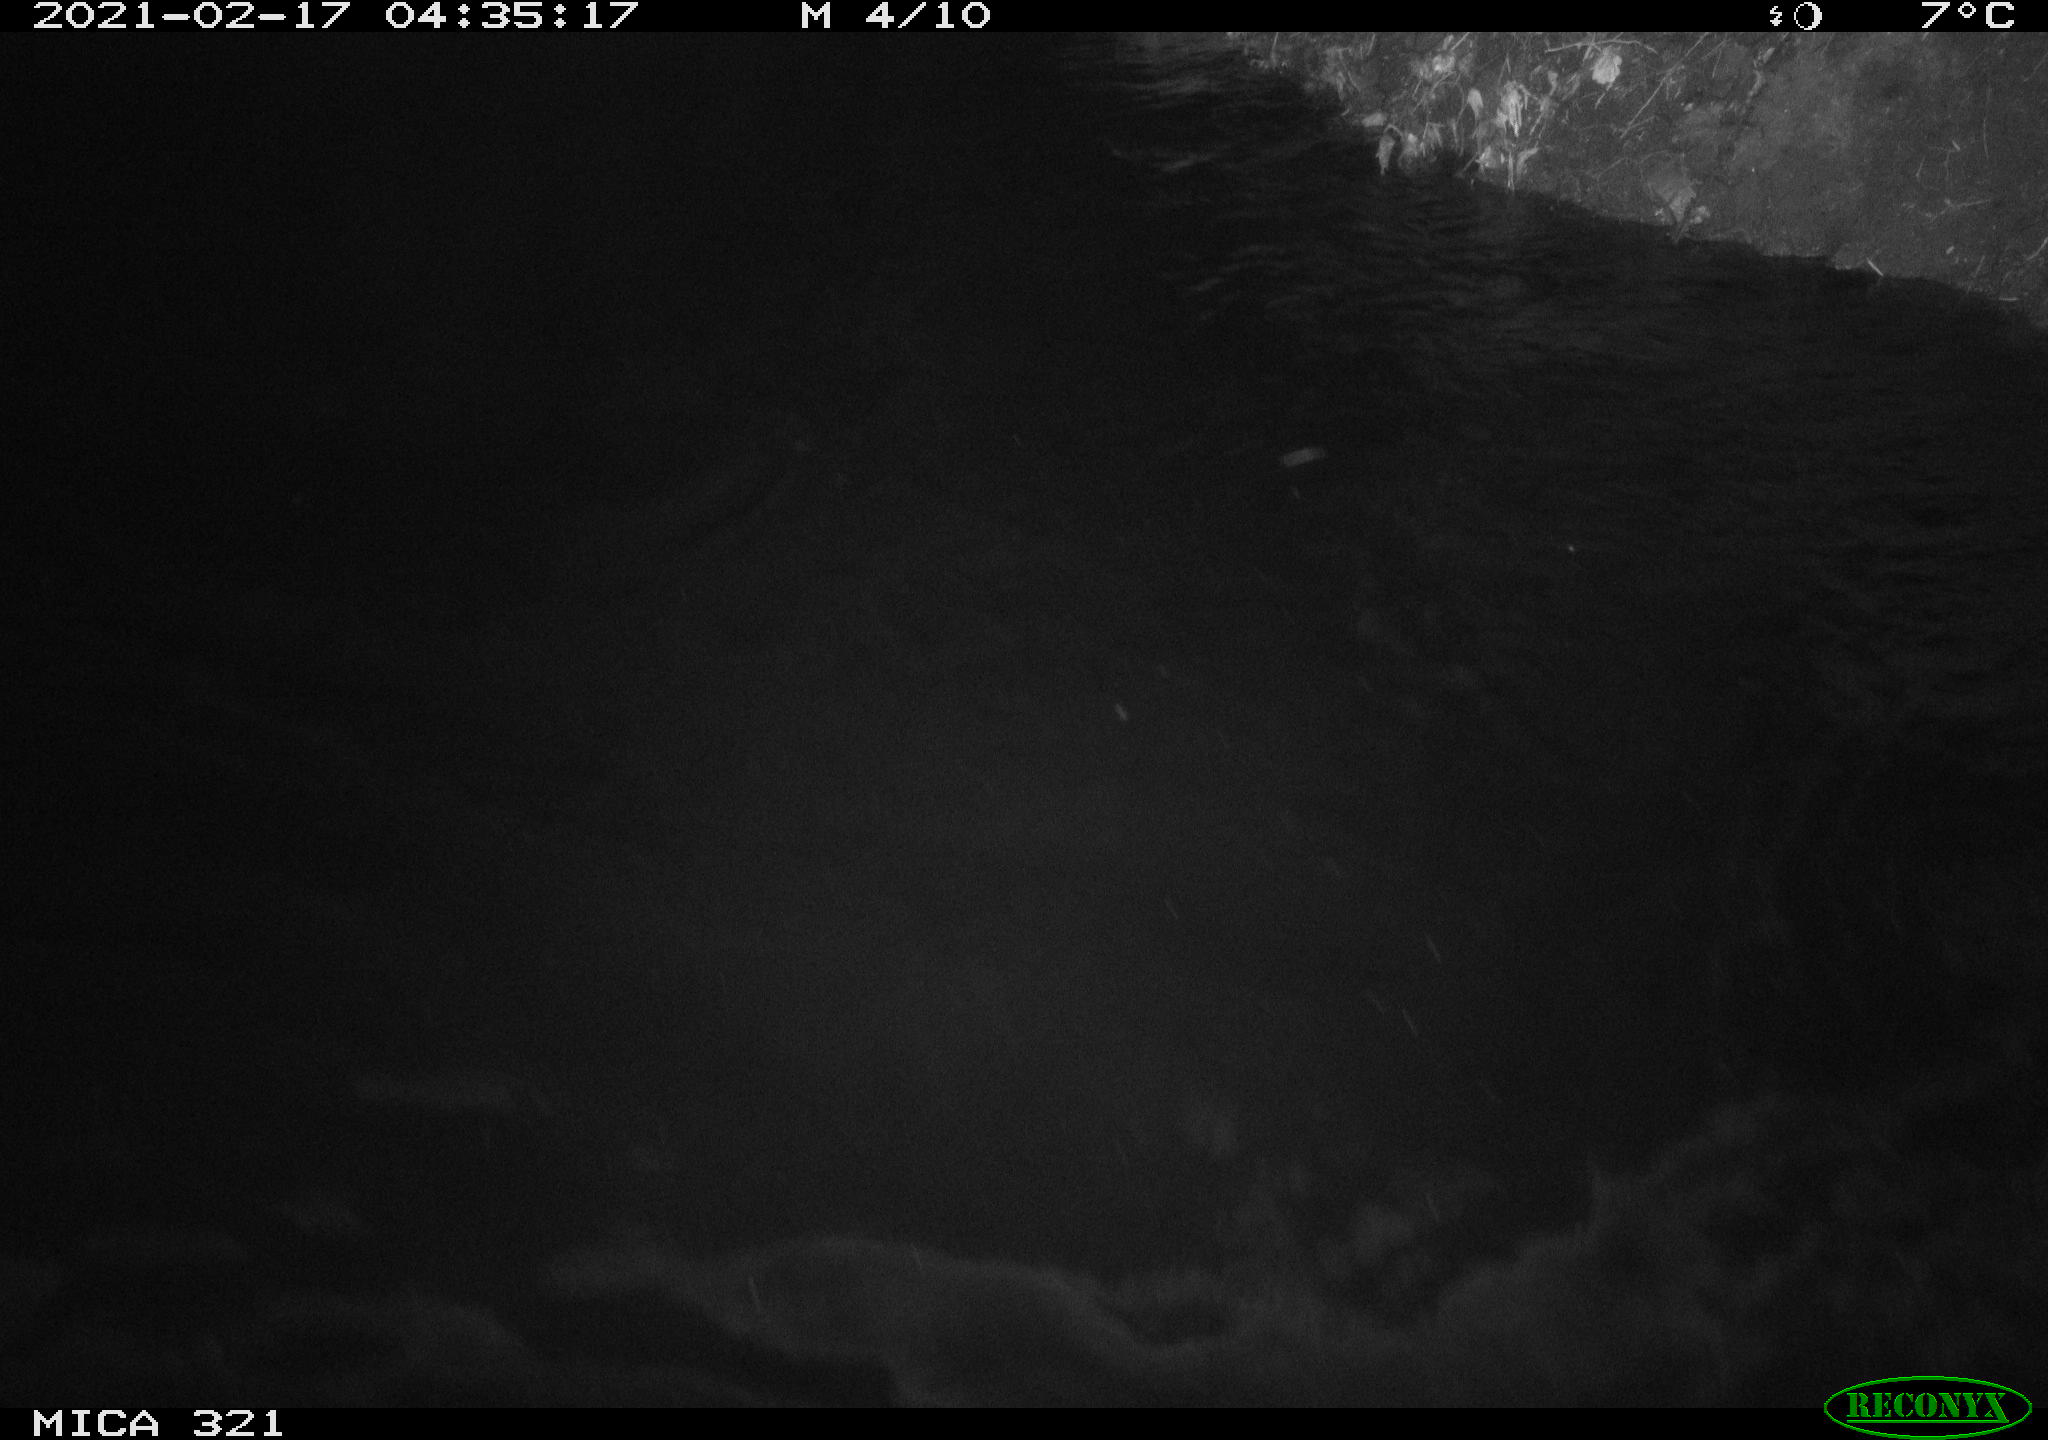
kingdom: Animalia
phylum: Chordata
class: Aves
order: Anseriformes
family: Anatidae
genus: Anas
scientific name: Anas platyrhynchos
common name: Mallard
